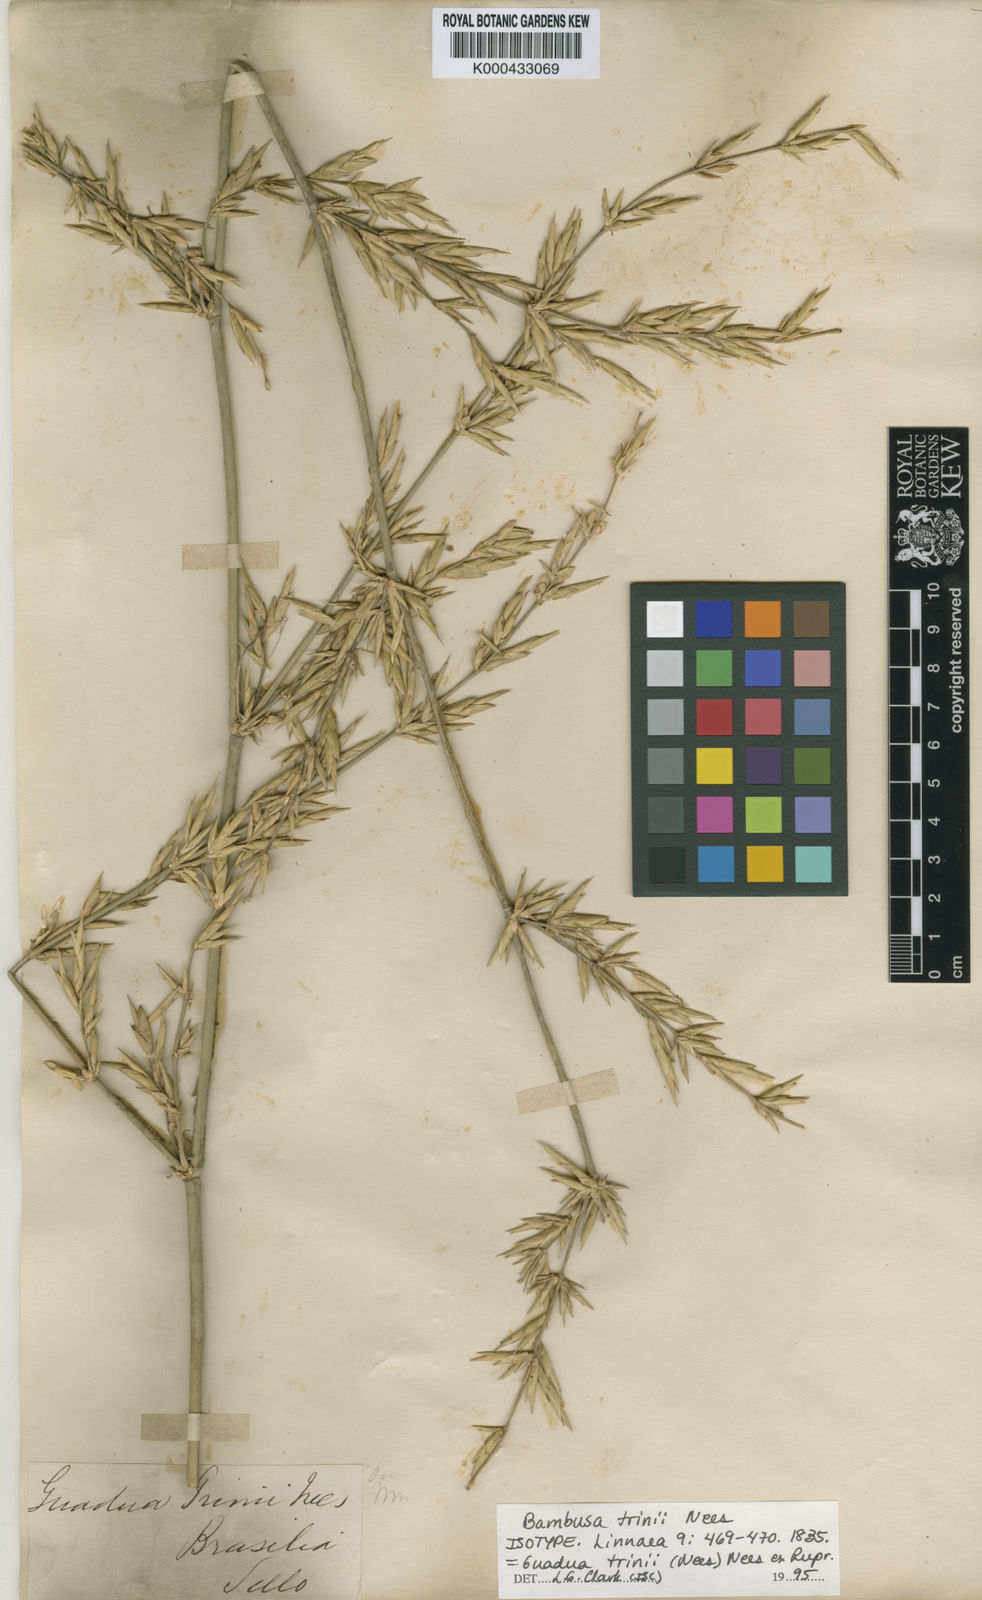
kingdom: Plantae
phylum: Tracheophyta
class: Liliopsida
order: Poales
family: Poaceae
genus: Guadua
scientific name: Guadua trinii
